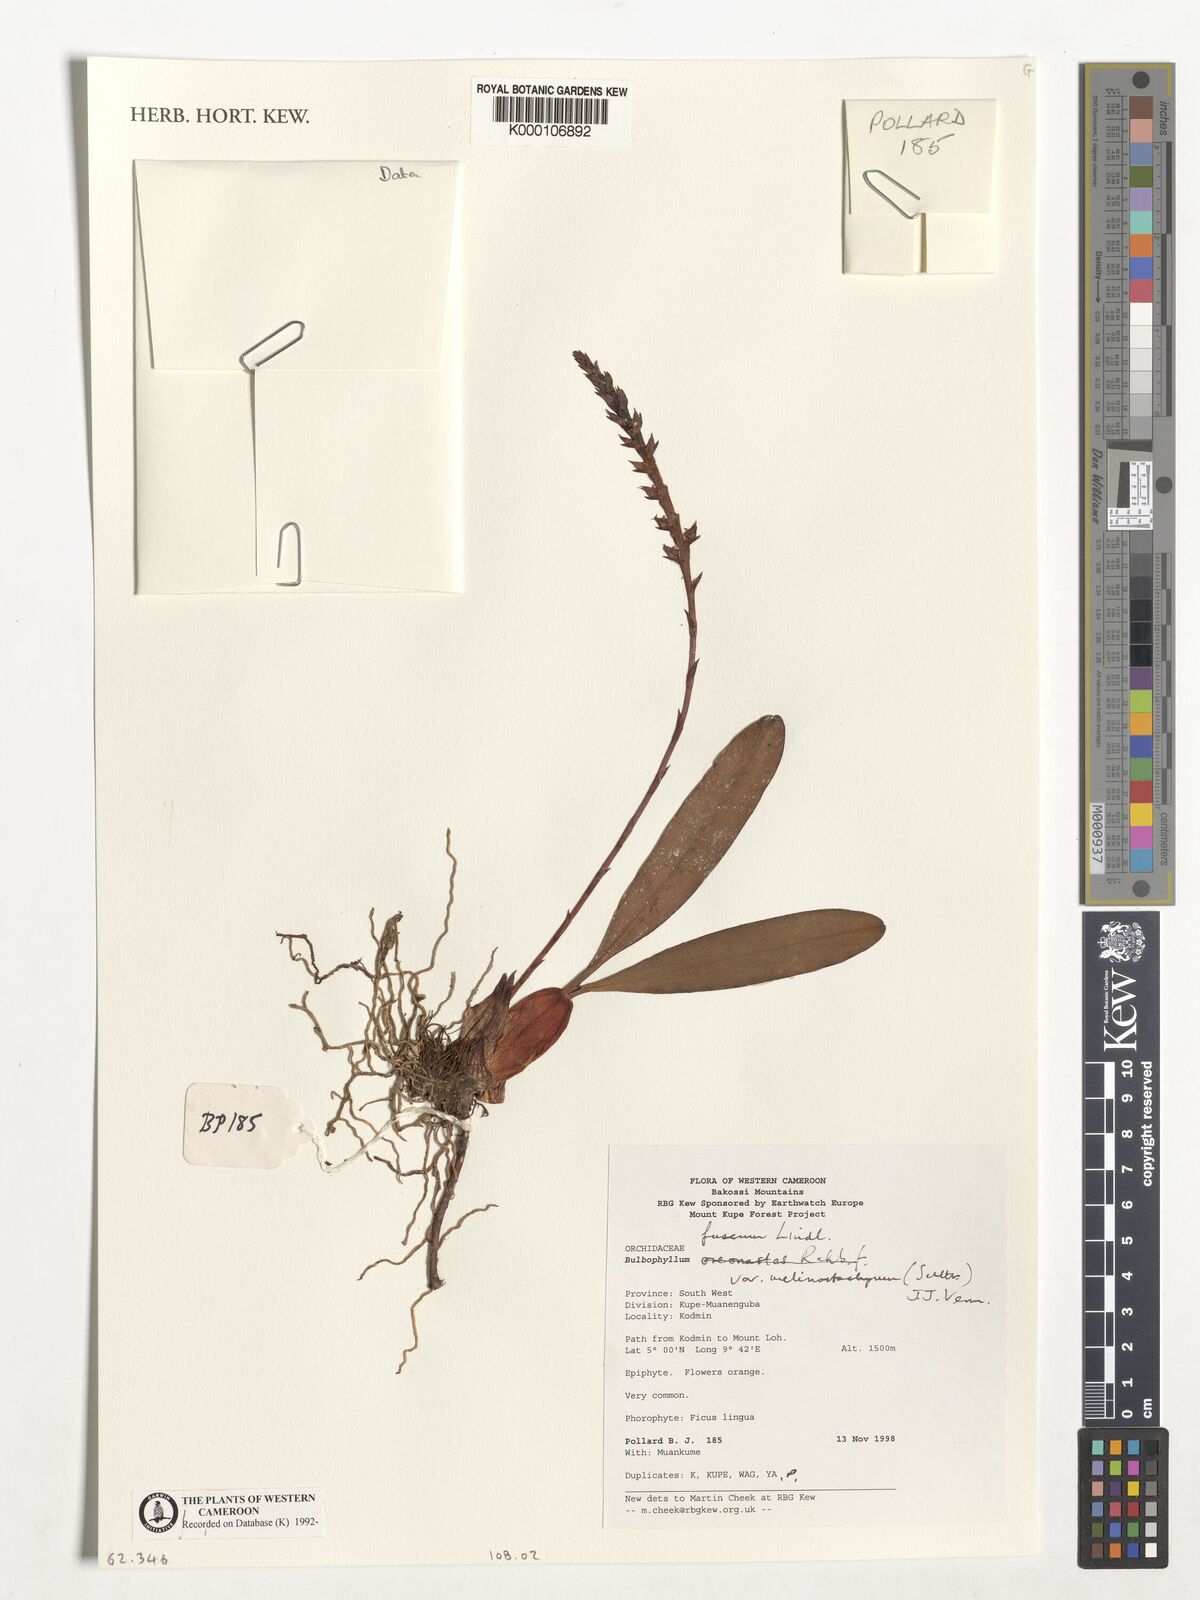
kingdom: Plantae
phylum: Tracheophyta
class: Liliopsida
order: Asparagales
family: Orchidaceae
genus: Bulbophyllum
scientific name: Bulbophyllum fuscum
